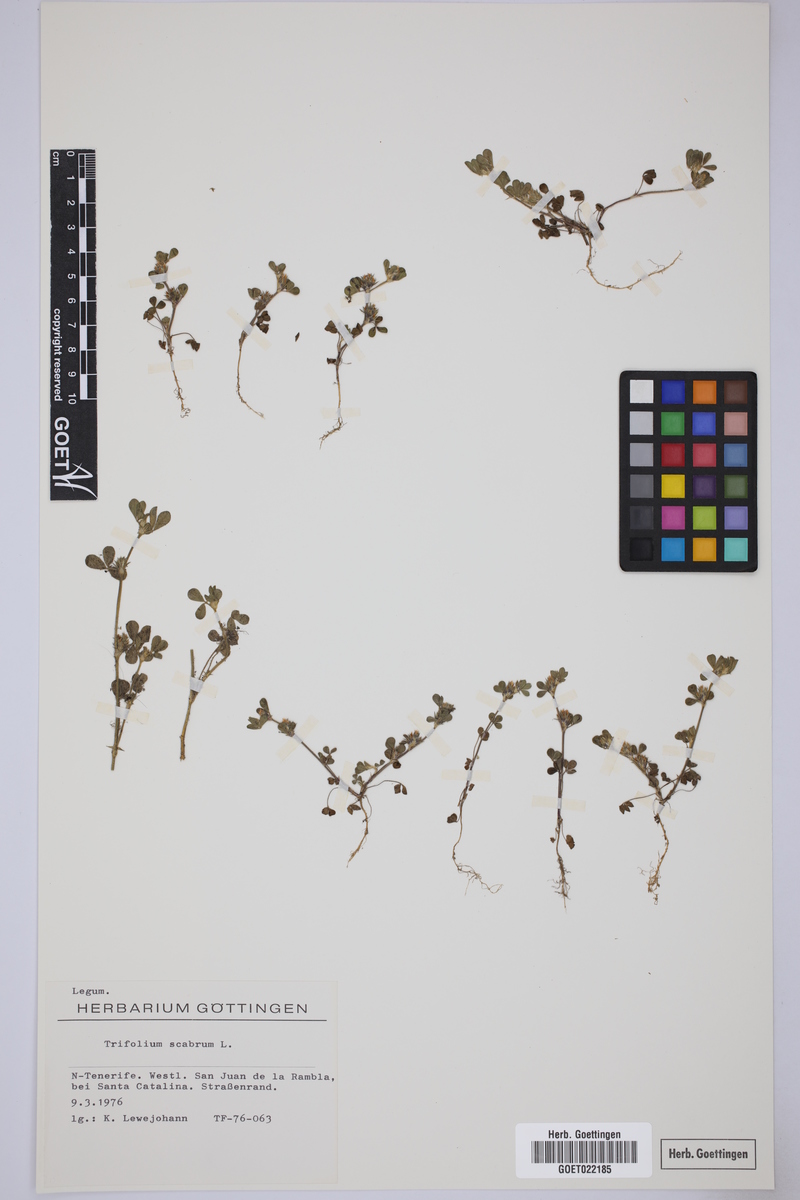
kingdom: Plantae
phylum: Tracheophyta
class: Magnoliopsida
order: Fabales
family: Fabaceae
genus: Trifolium
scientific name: Trifolium scabrum
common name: Rough clover
